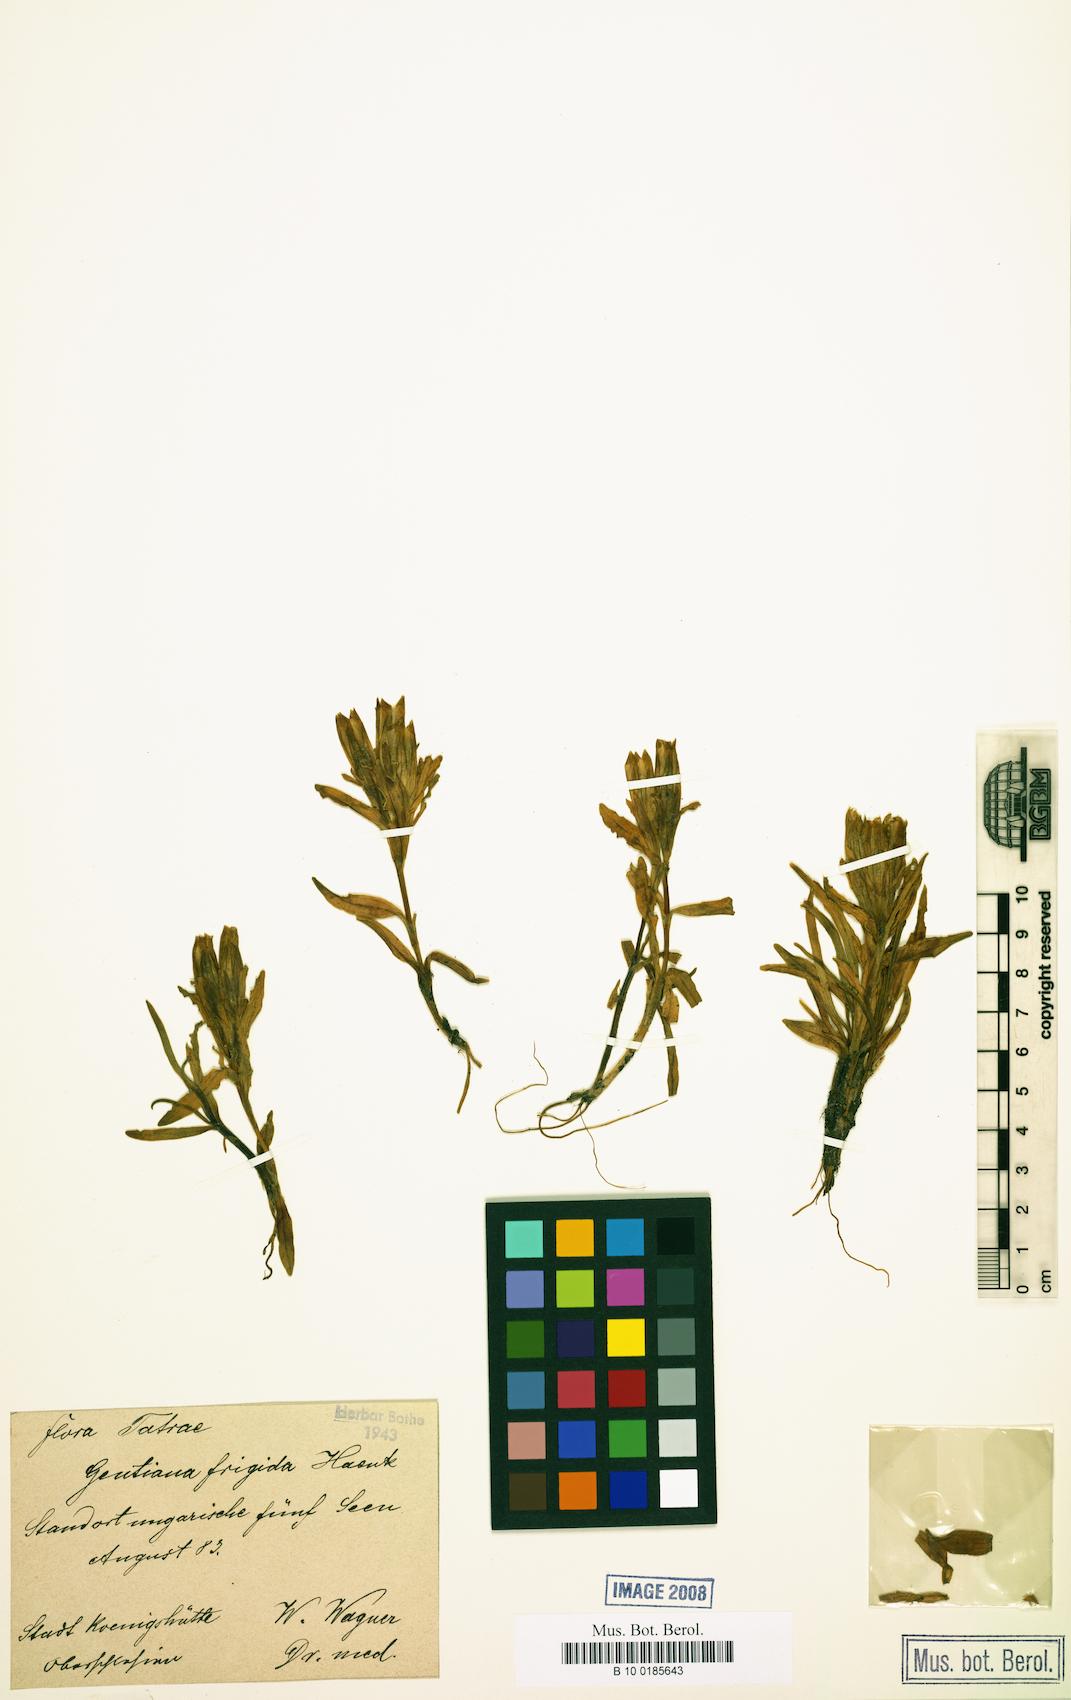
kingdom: Plantae
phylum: Tracheophyta
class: Magnoliopsida
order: Gentianales
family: Gentianaceae
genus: Gentiana
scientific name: Gentiana frigida
